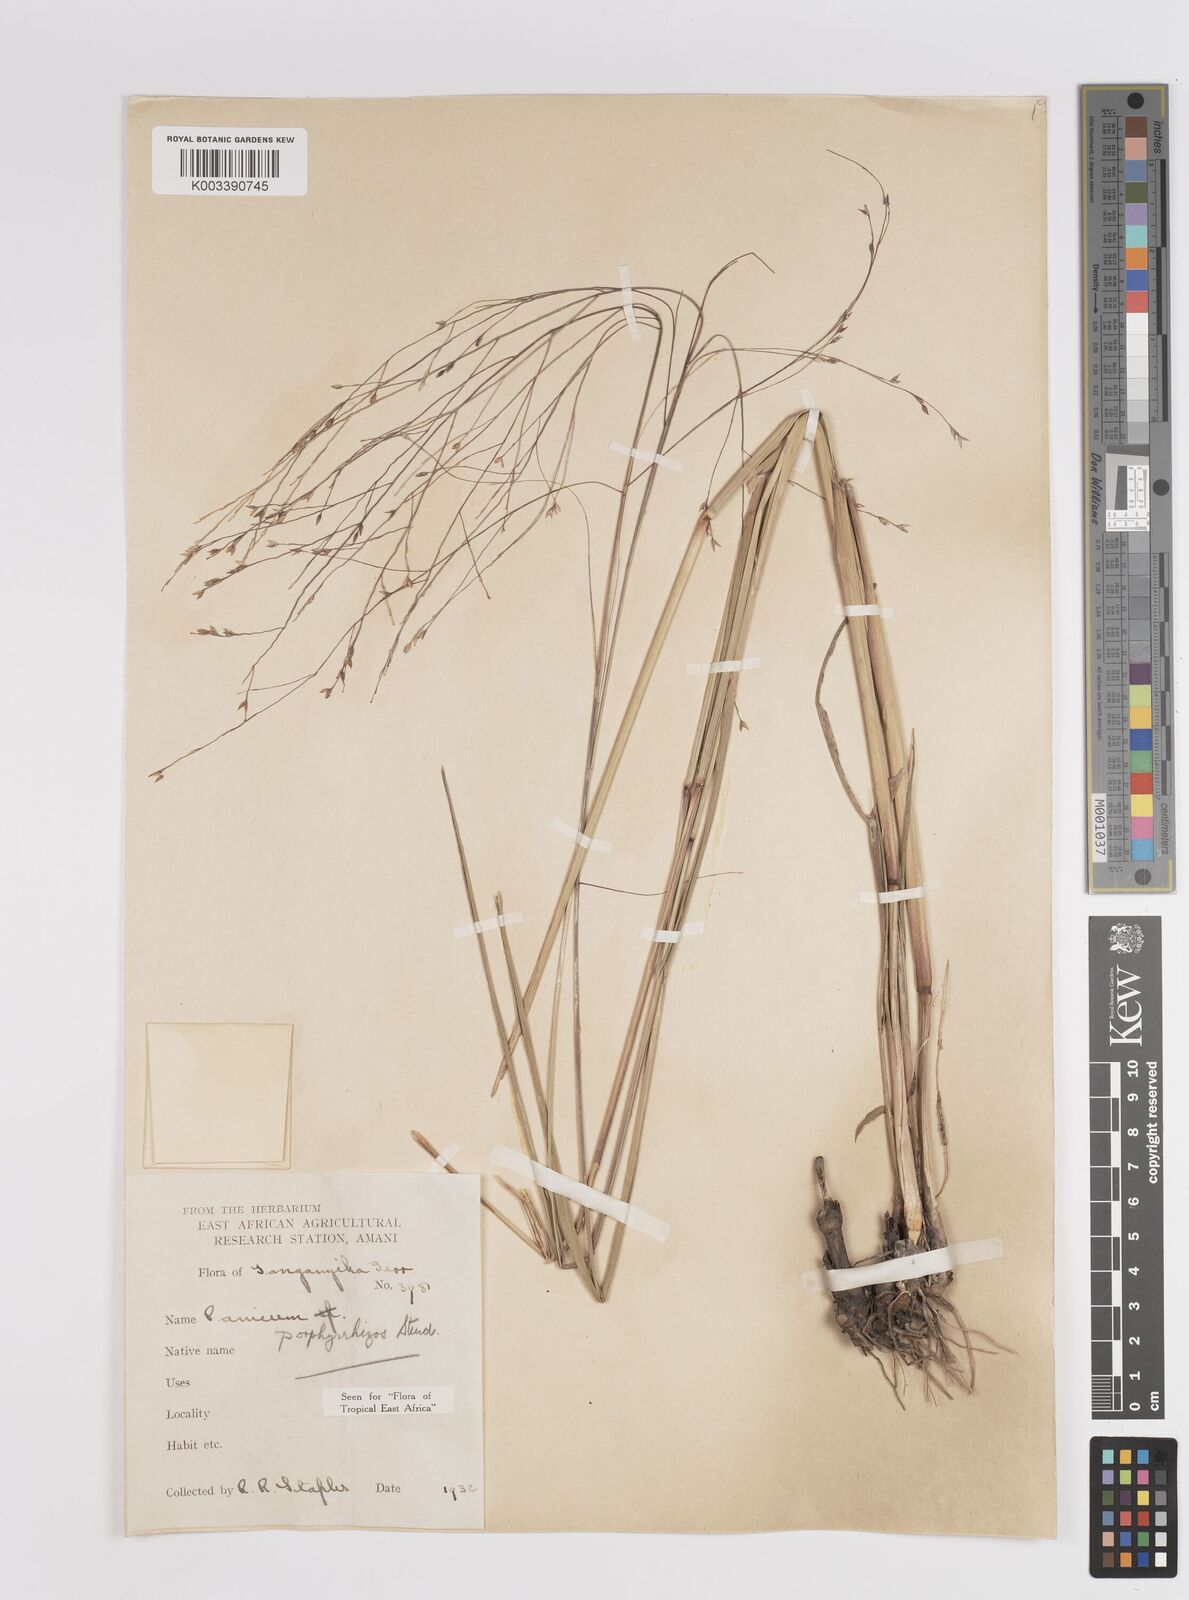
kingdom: Plantae
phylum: Tracheophyta
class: Liliopsida
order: Poales
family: Poaceae
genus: Panicum
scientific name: Panicum porphyrrhizos
